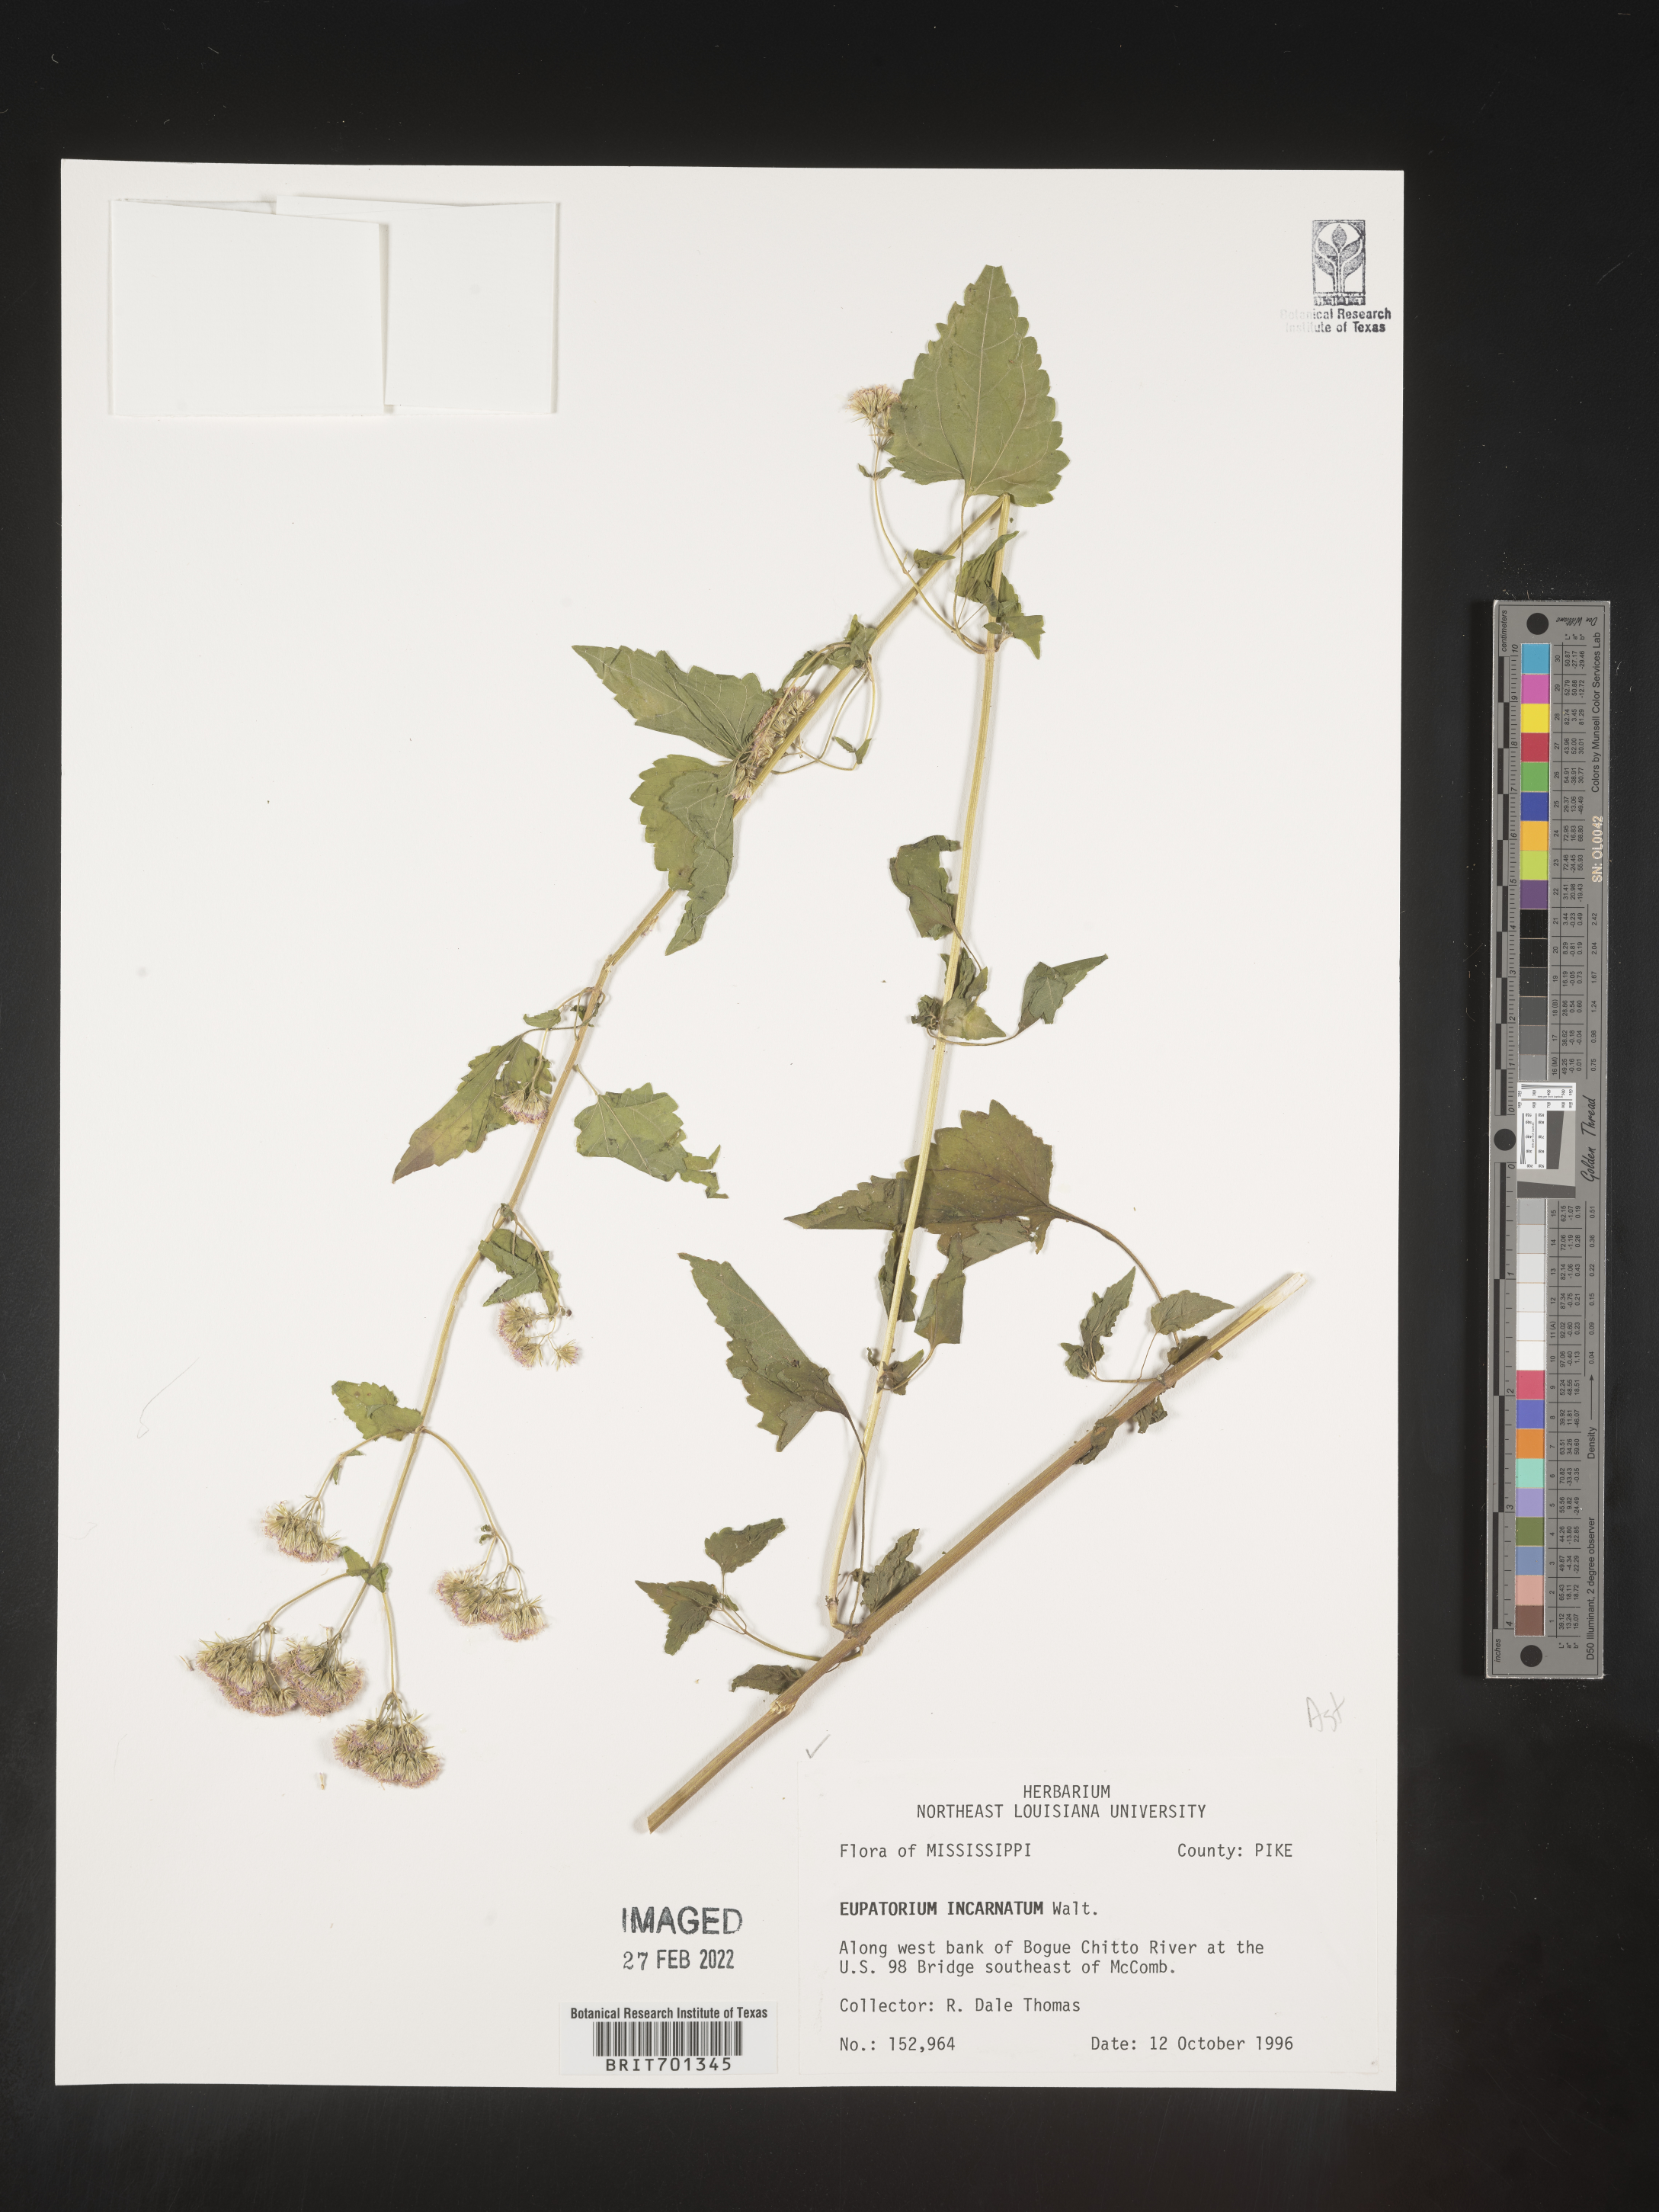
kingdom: Plantae
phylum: Tracheophyta
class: Magnoliopsida
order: Asterales
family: Asteraceae
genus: Fleischmannia
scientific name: Fleischmannia incarnata
